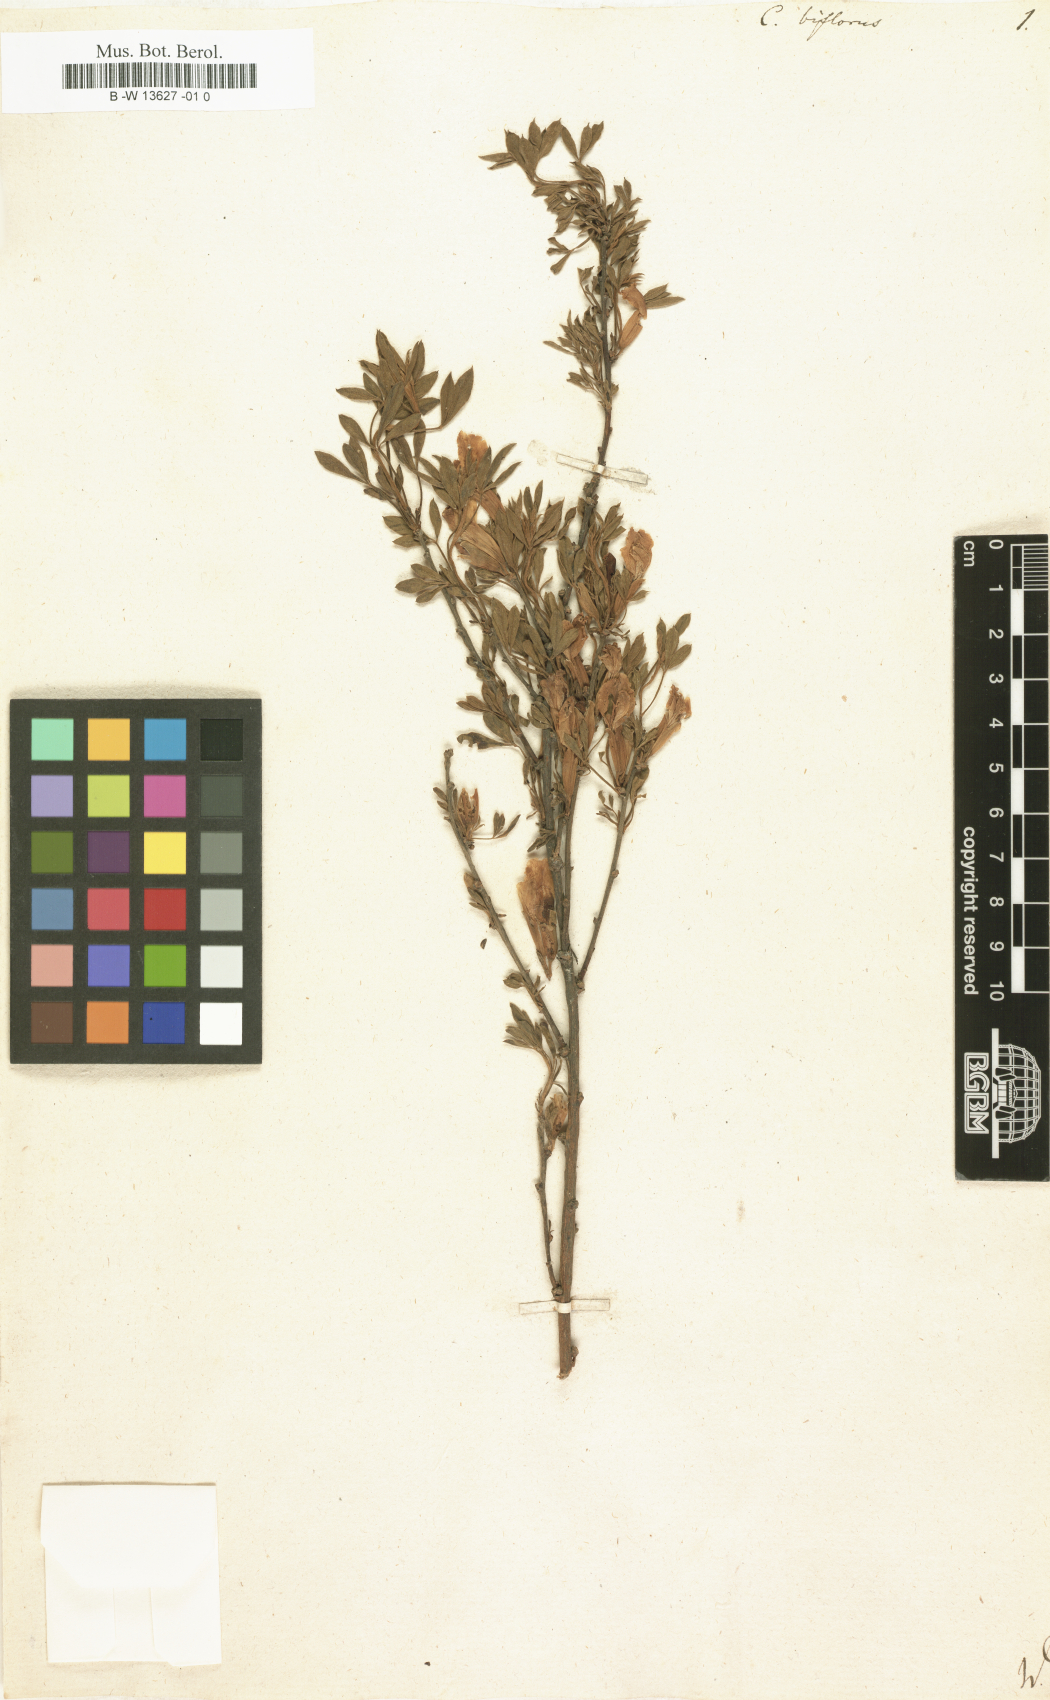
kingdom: Plantae
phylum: Tracheophyta
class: Magnoliopsida
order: Fabales
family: Fabaceae
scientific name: Fabaceae
